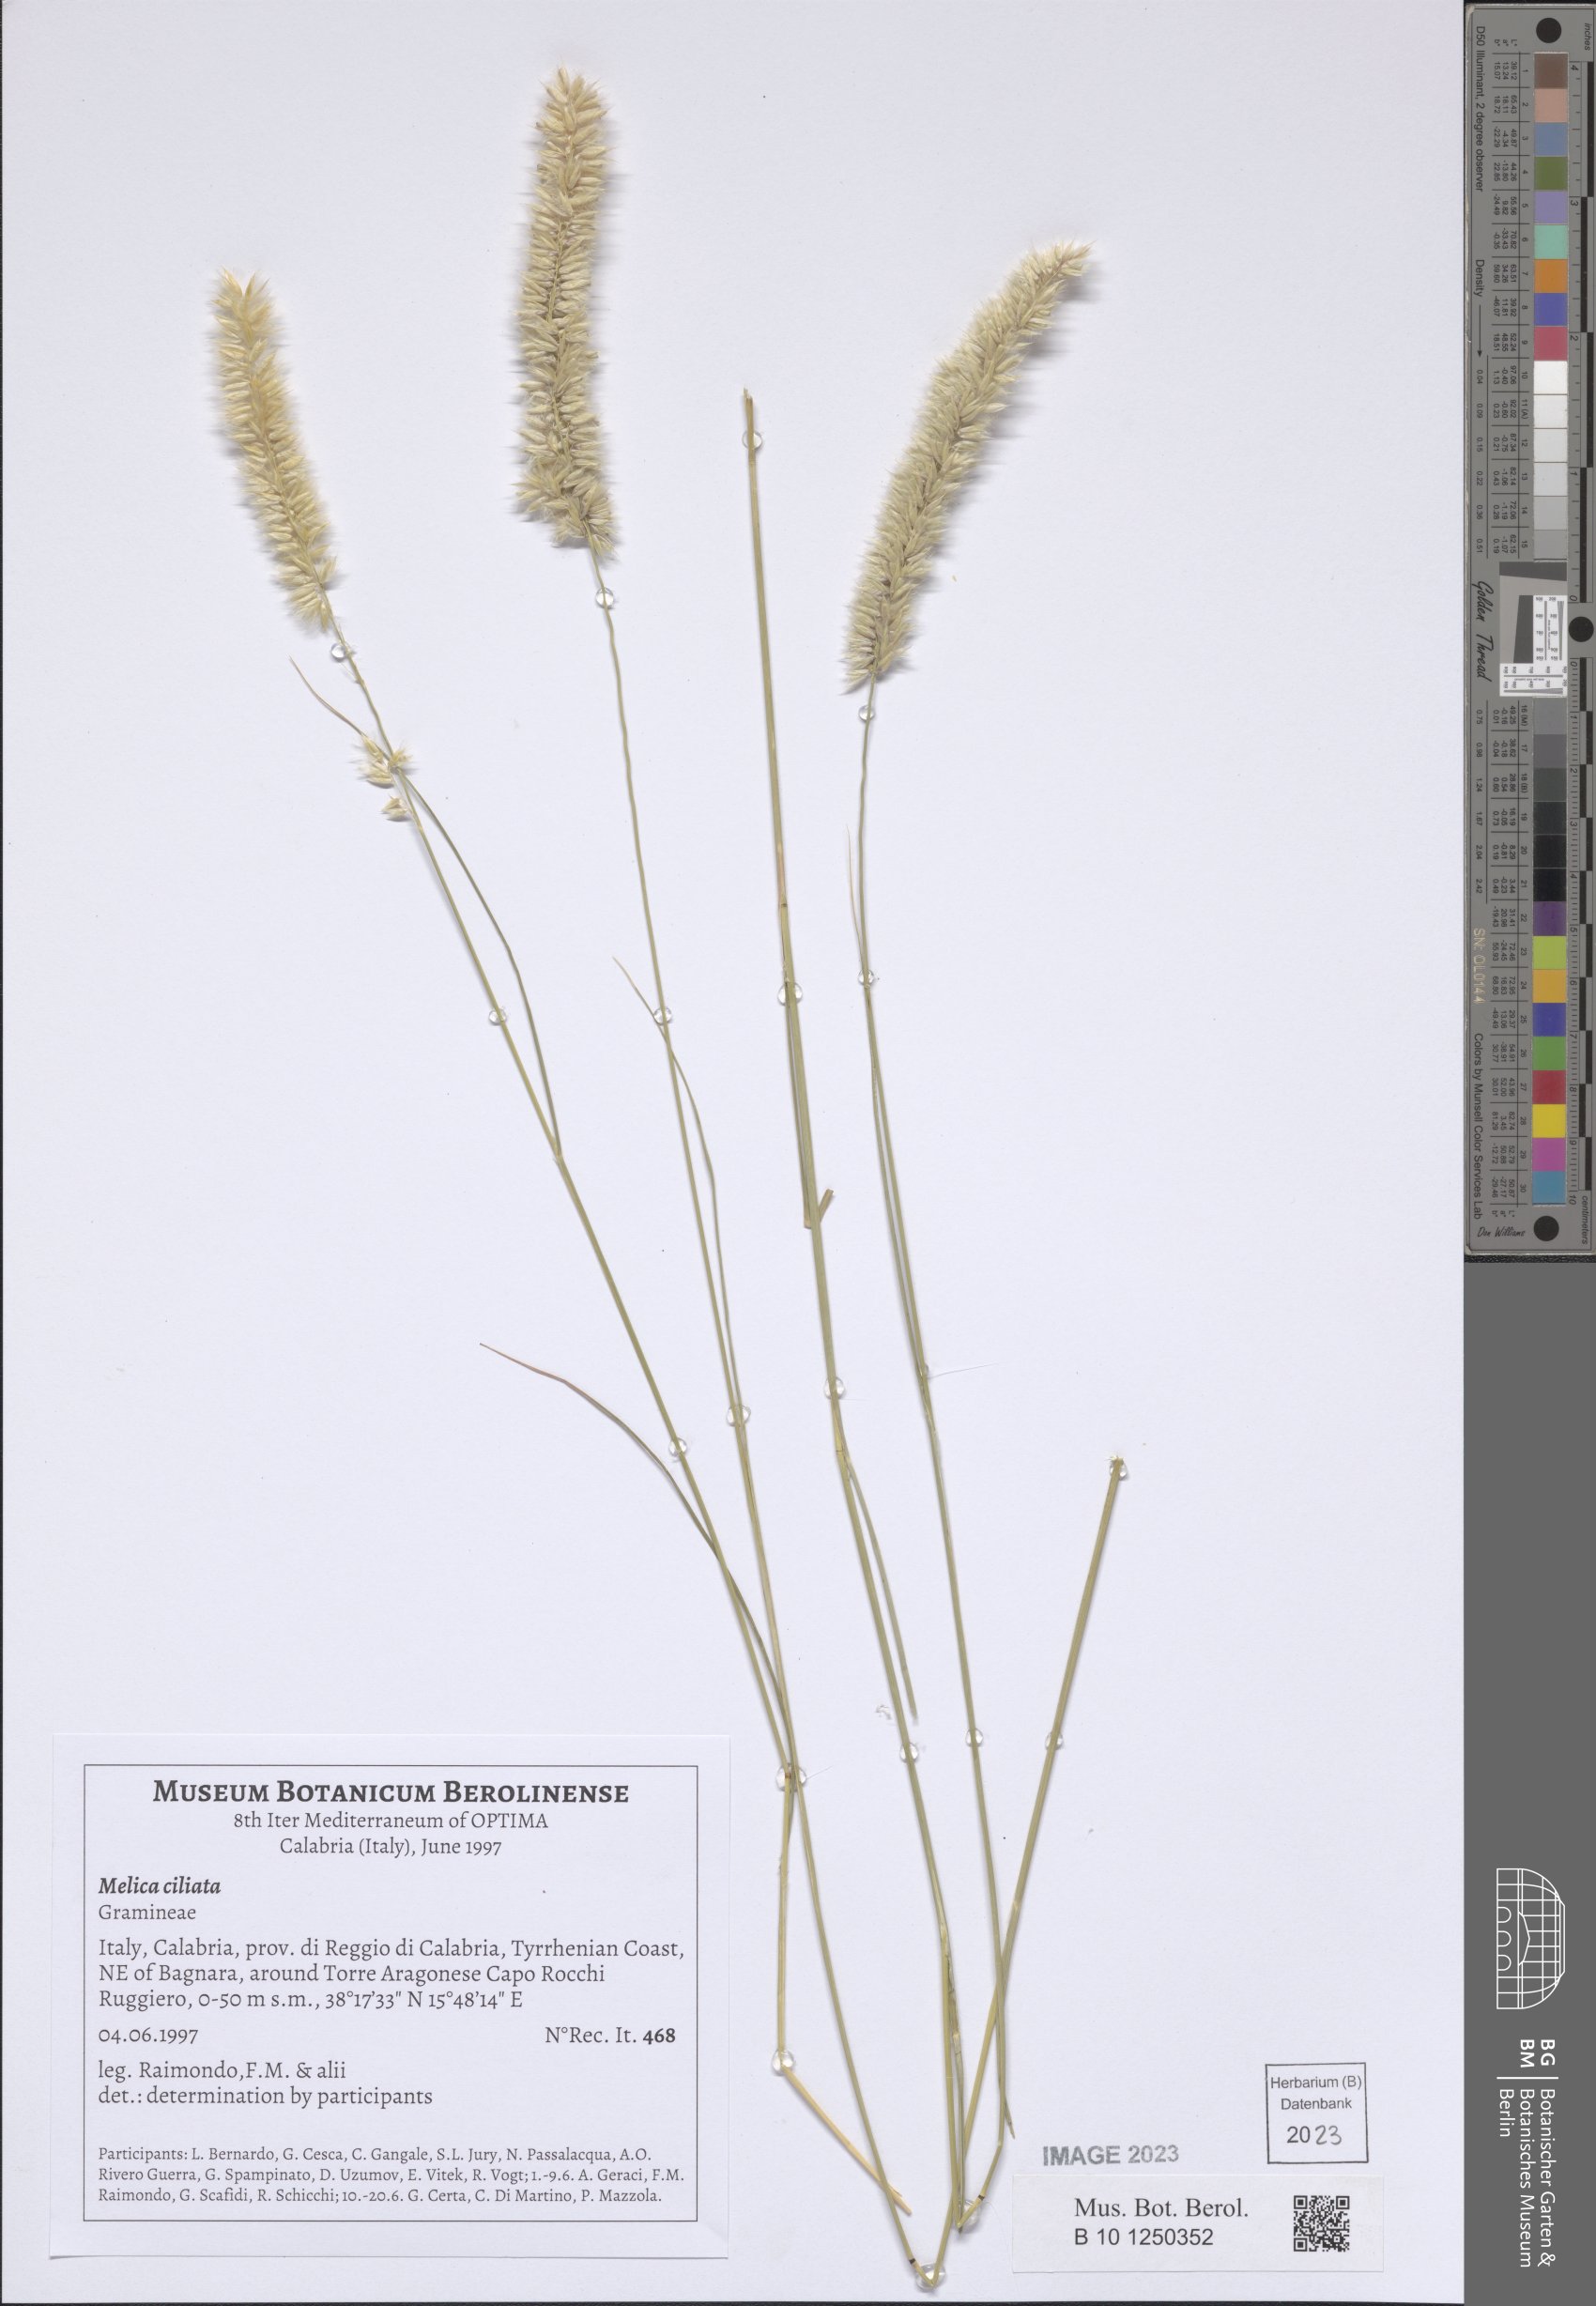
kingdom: Plantae
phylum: Tracheophyta
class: Liliopsida
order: Poales
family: Poaceae
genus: Melica
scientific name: Melica ciliata
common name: Hairy melicgrass
